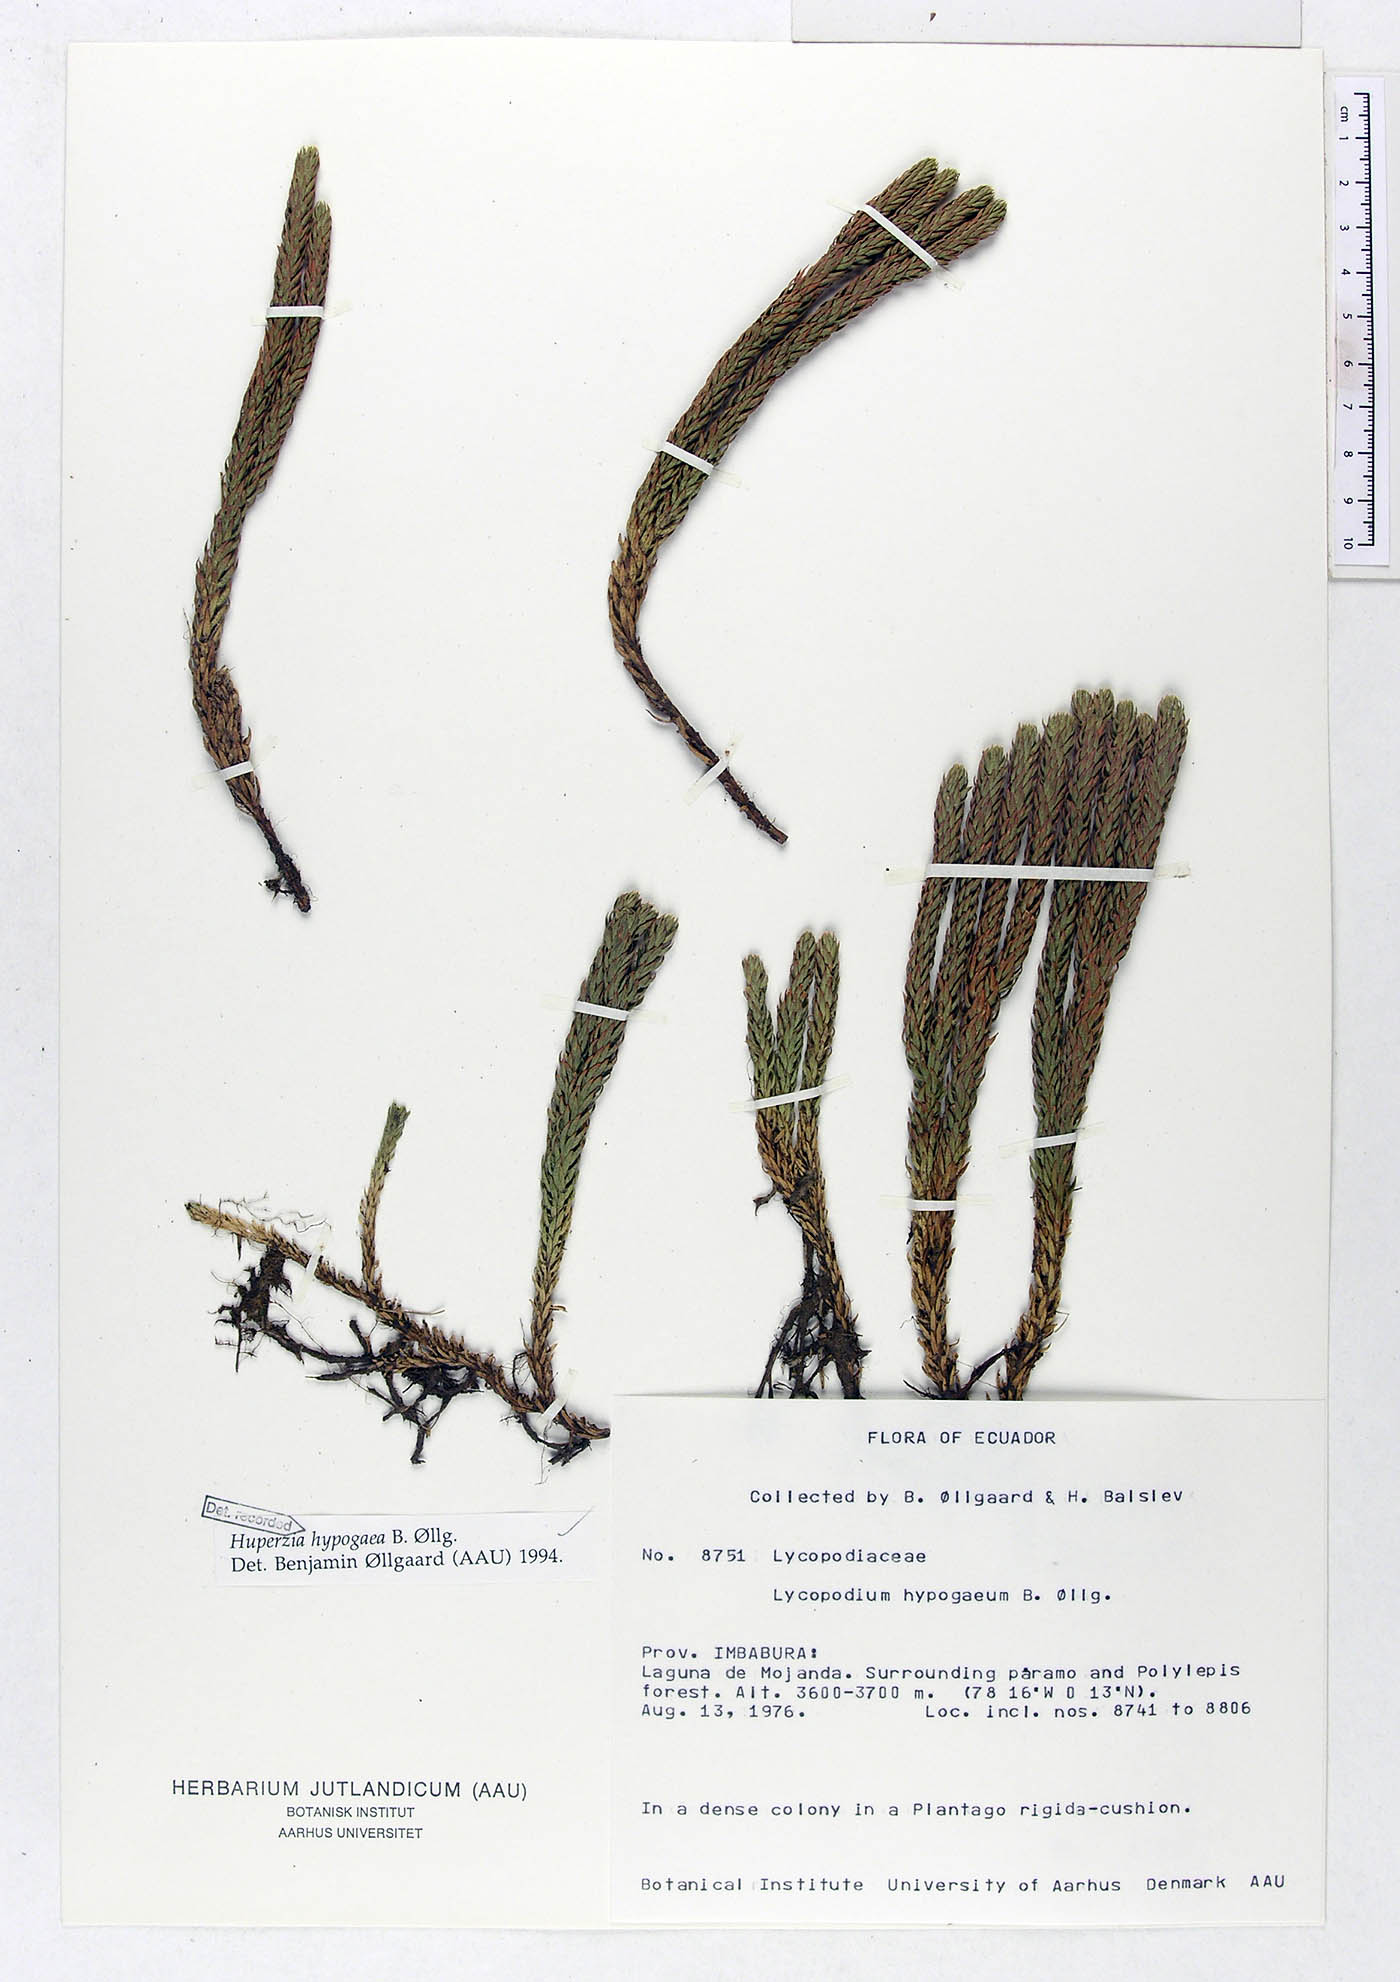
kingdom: Plantae
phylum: Tracheophyta
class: Lycopodiopsida
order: Lycopodiales
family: Lycopodiaceae
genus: Phlegmariurus
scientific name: Phlegmariurus hypogaeus
